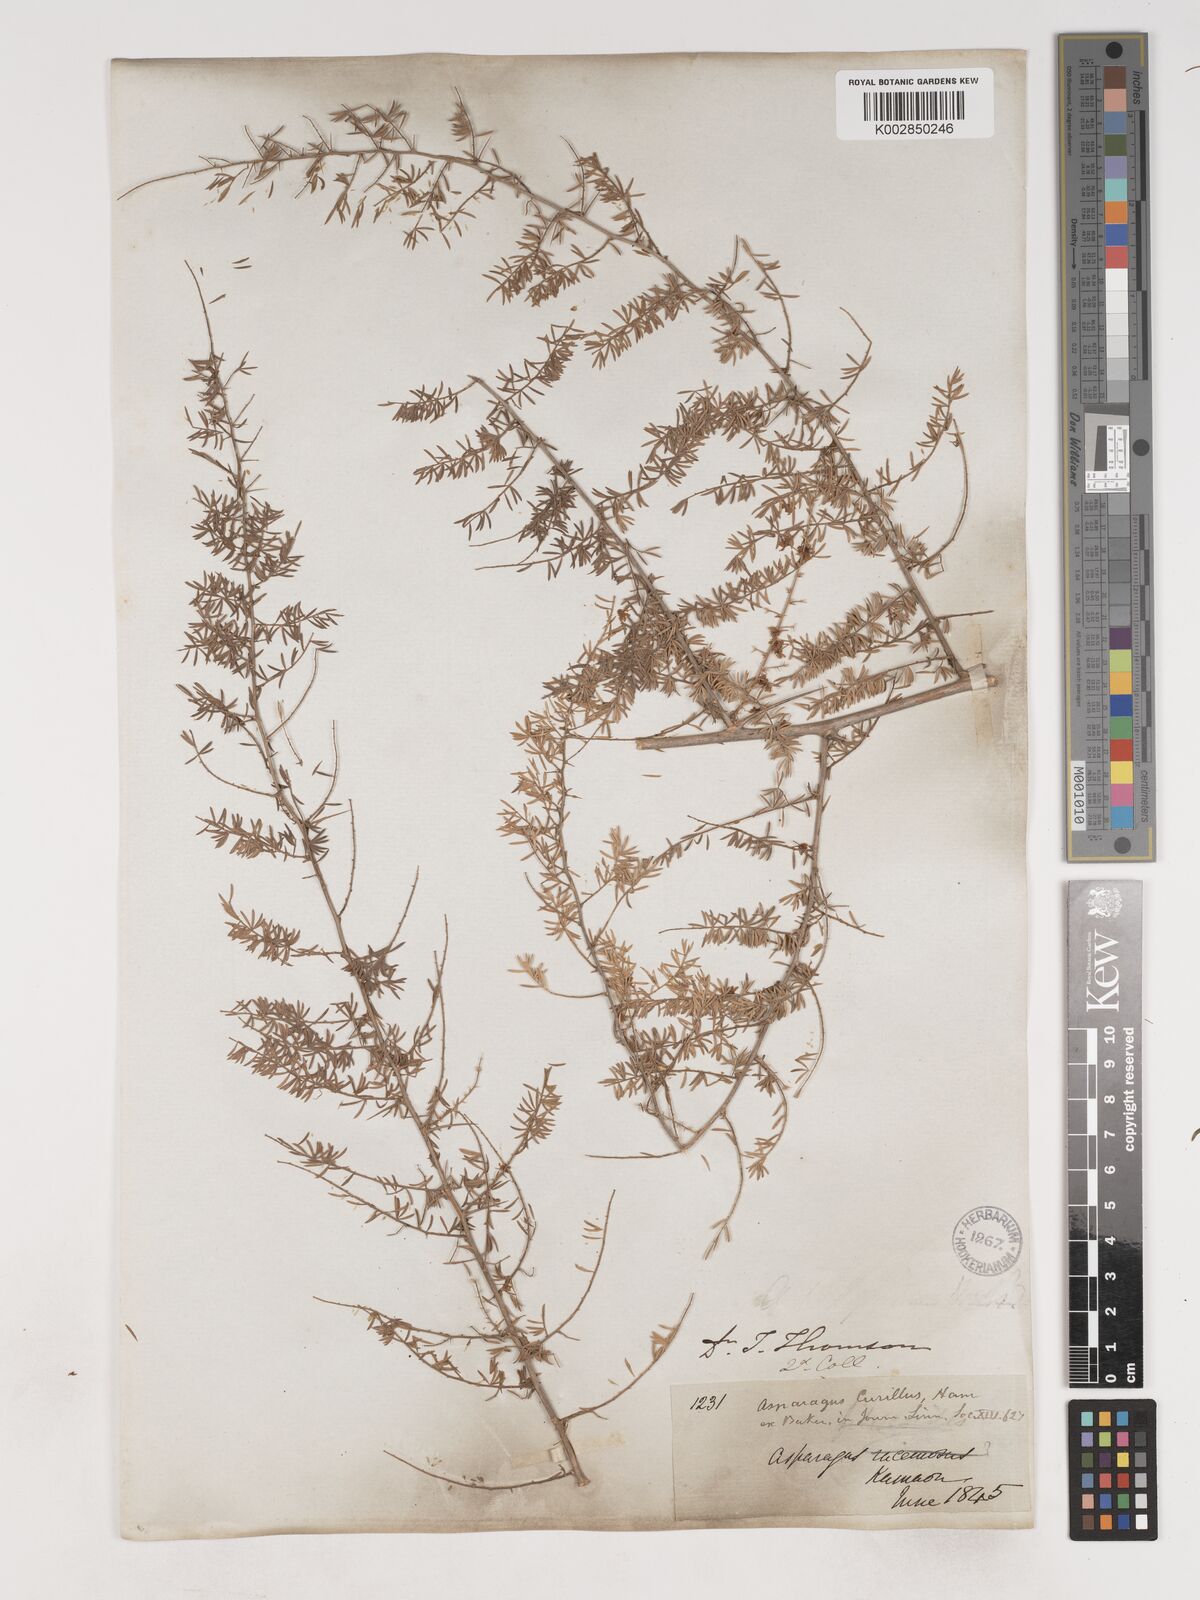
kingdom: Plantae
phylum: Tracheophyta
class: Liliopsida
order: Asparagales
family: Asparagaceae
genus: Asparagus
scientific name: Asparagus curillus
